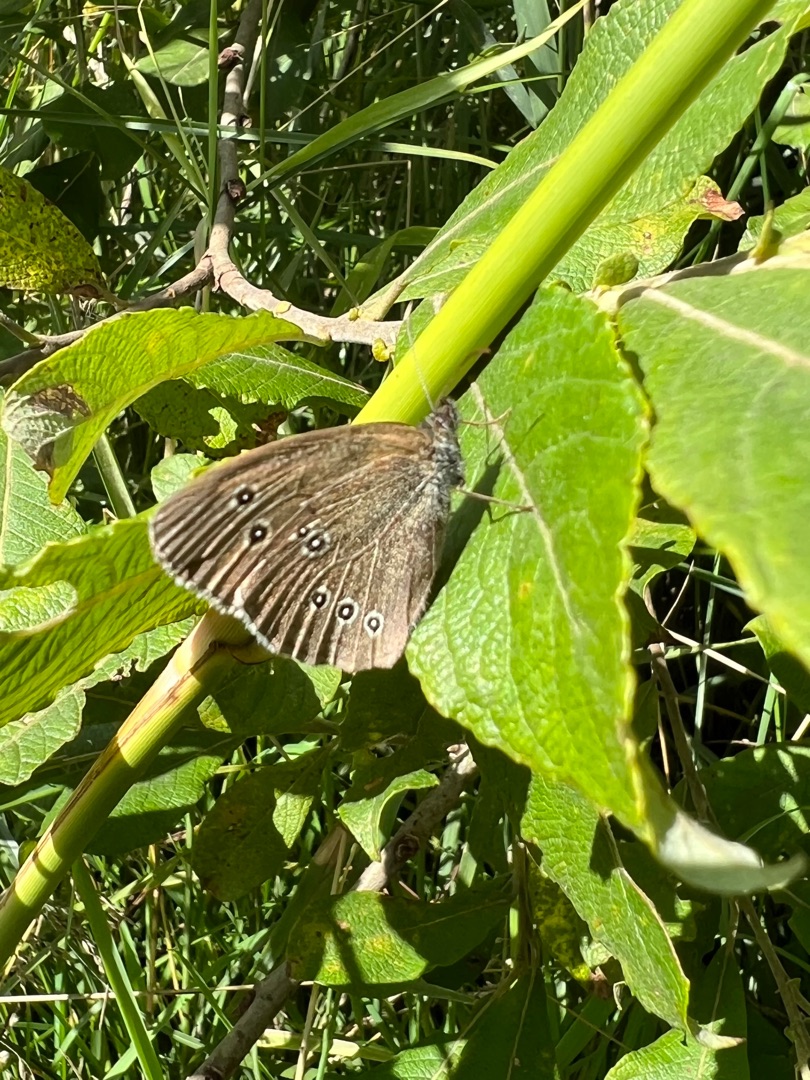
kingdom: Animalia
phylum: Arthropoda
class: Insecta
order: Lepidoptera
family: Nymphalidae
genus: Aphantopus
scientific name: Aphantopus hyperantus
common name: Engrandøje
